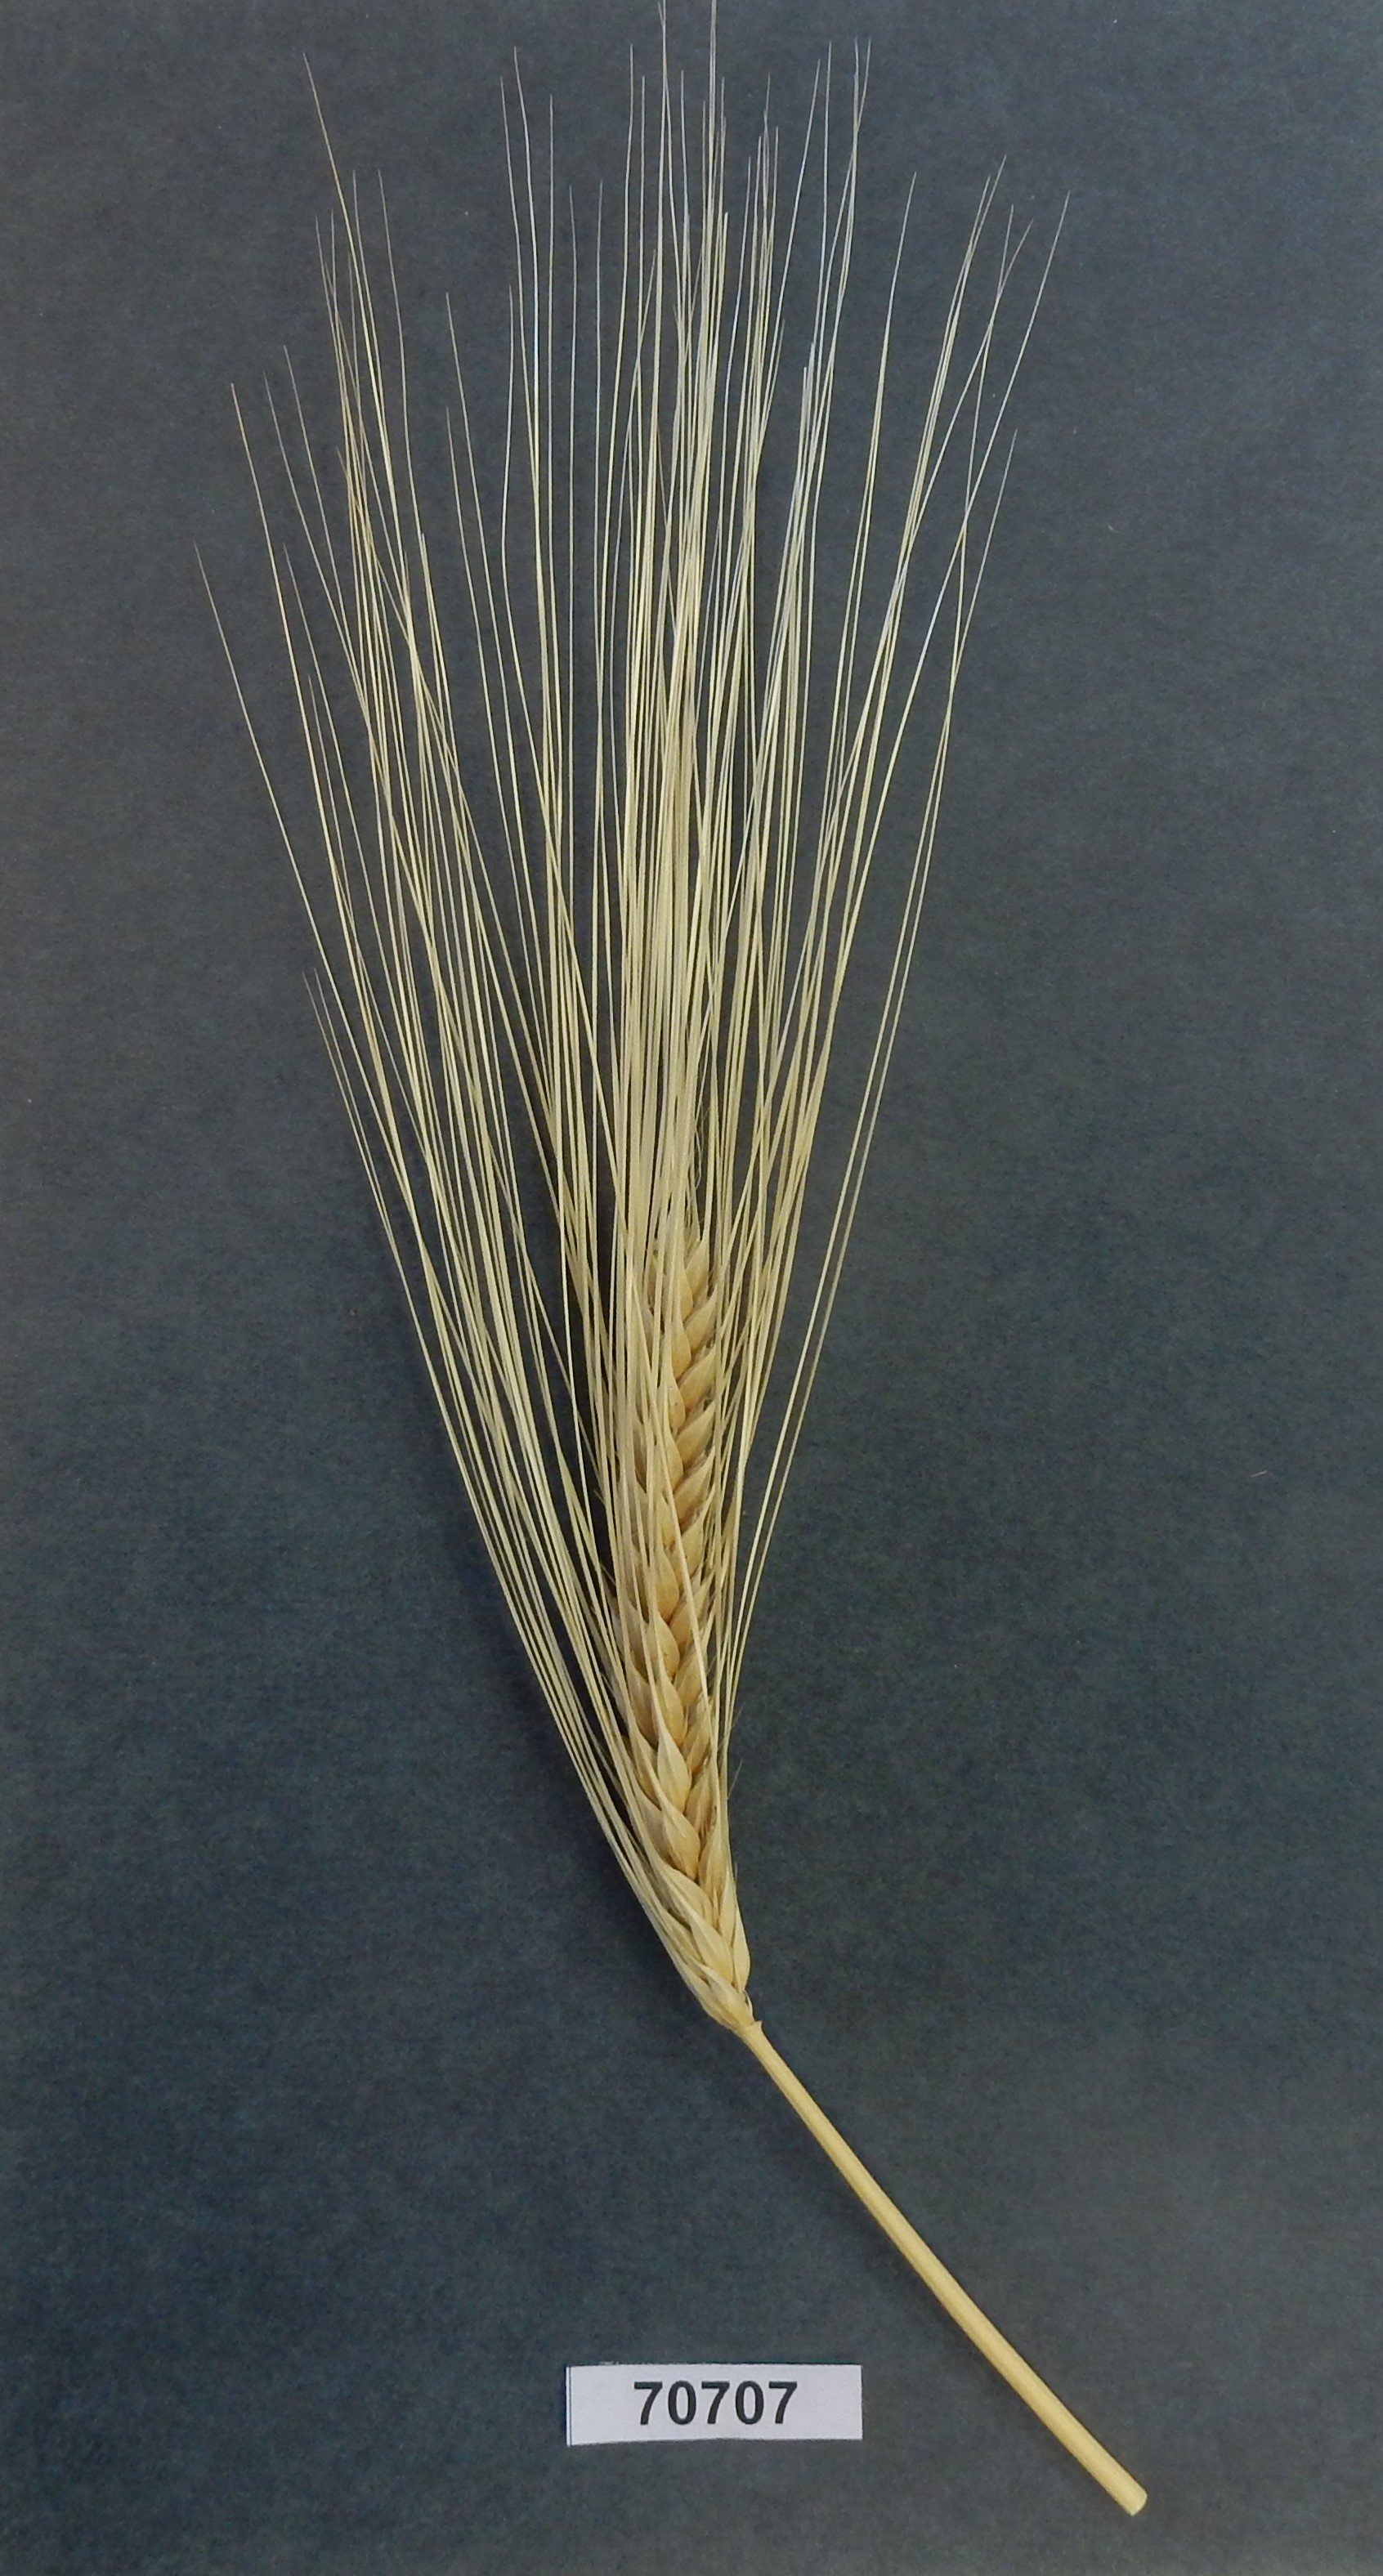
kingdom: Plantae
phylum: Tracheophyta
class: Liliopsida
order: Poales
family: Poaceae
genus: Hordeum
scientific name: Hordeum
